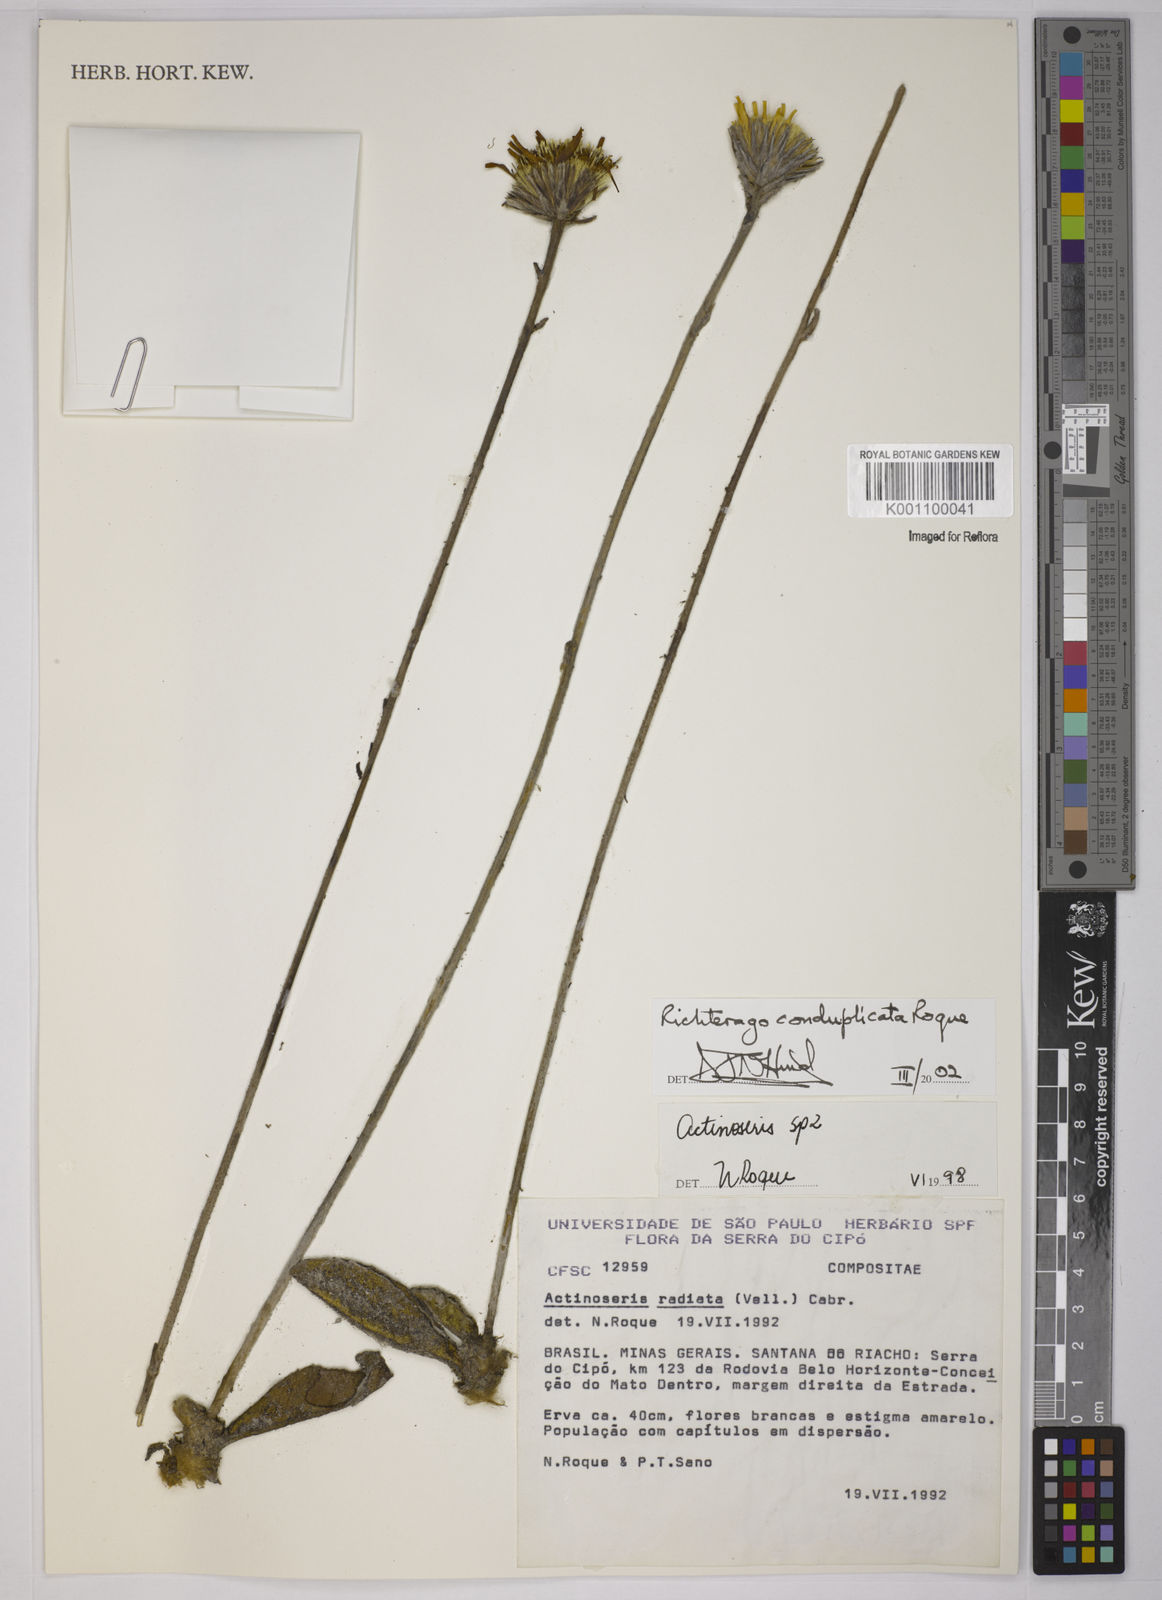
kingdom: Plantae
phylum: Tracheophyta
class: Magnoliopsida
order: Asterales
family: Asteraceae
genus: Richterago
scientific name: Richterago conduplicata
